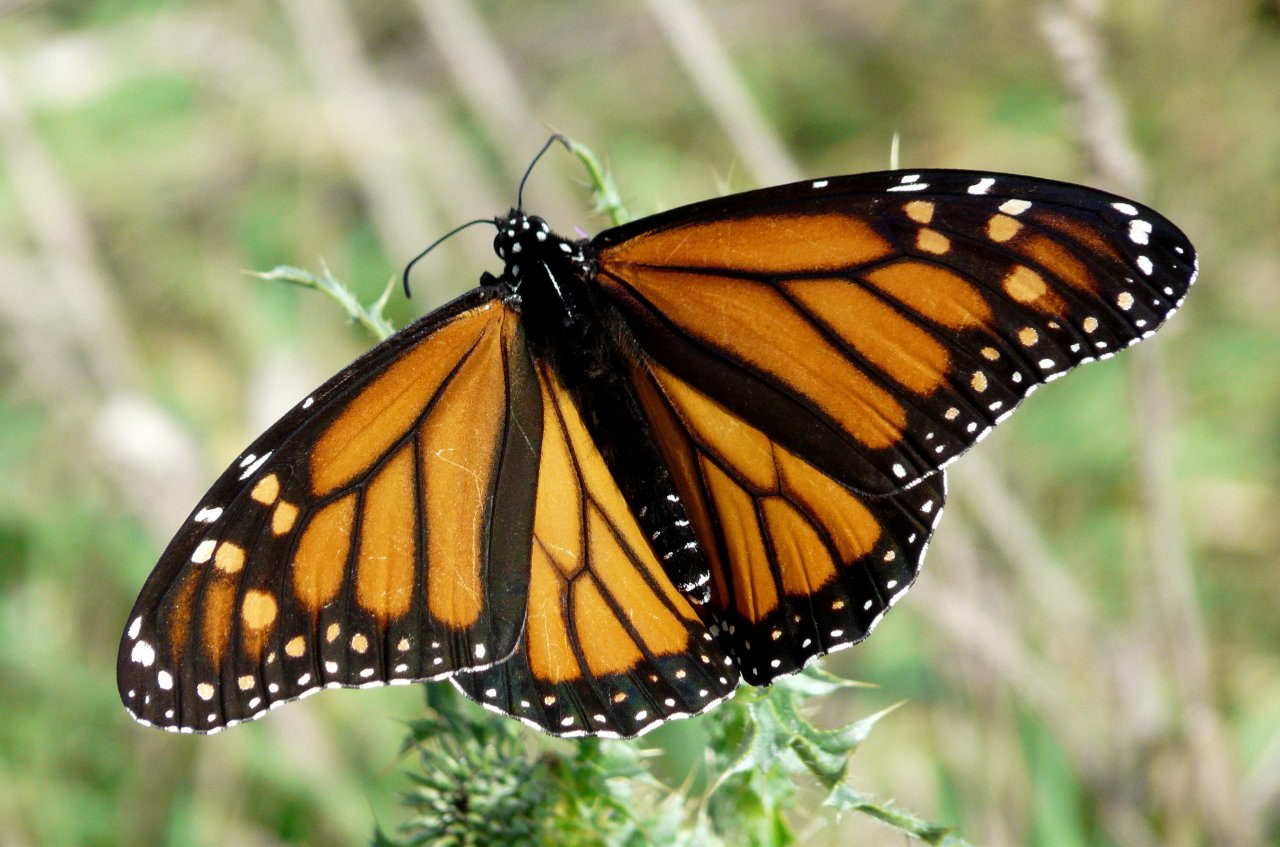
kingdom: Animalia
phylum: Arthropoda
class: Insecta
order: Lepidoptera
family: Nymphalidae
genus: Danaus
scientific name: Danaus plexippus
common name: Monarch
